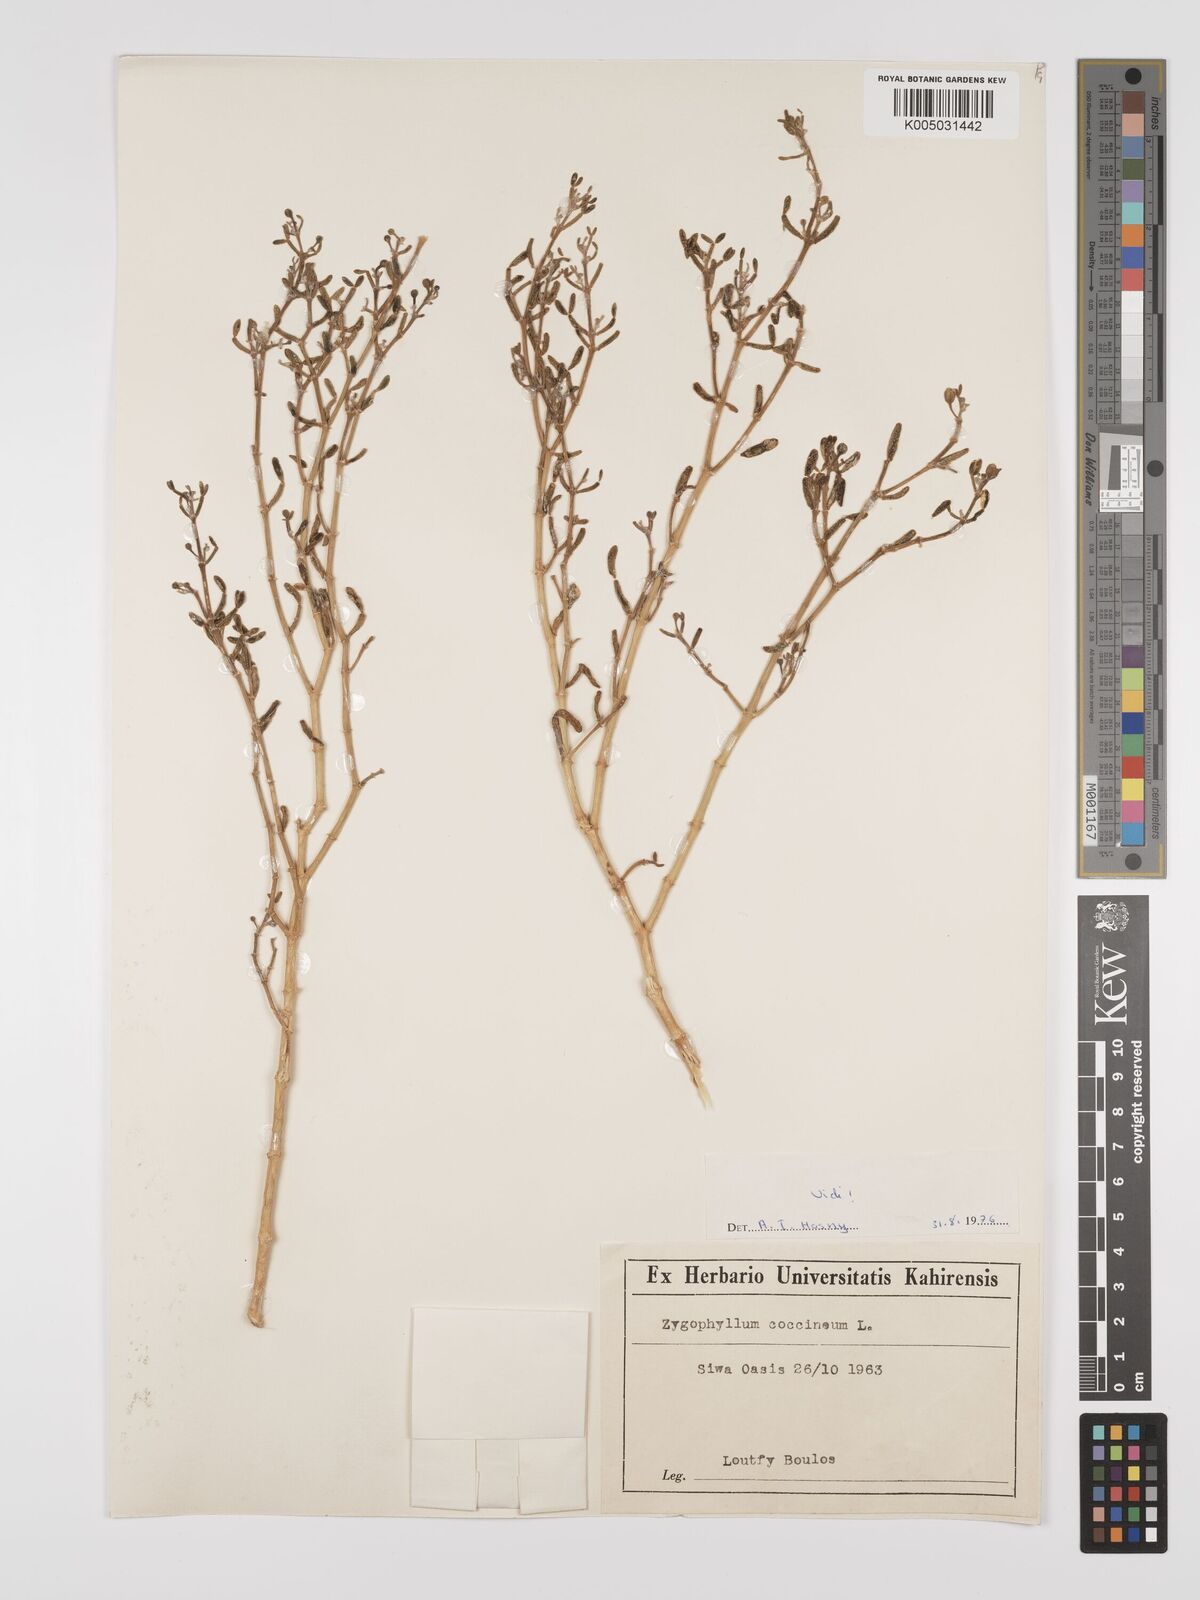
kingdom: Plantae
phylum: Tracheophyta
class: Magnoliopsida
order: Zygophyllales
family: Zygophyllaceae
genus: Zygophyllum
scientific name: Zygophyllum
